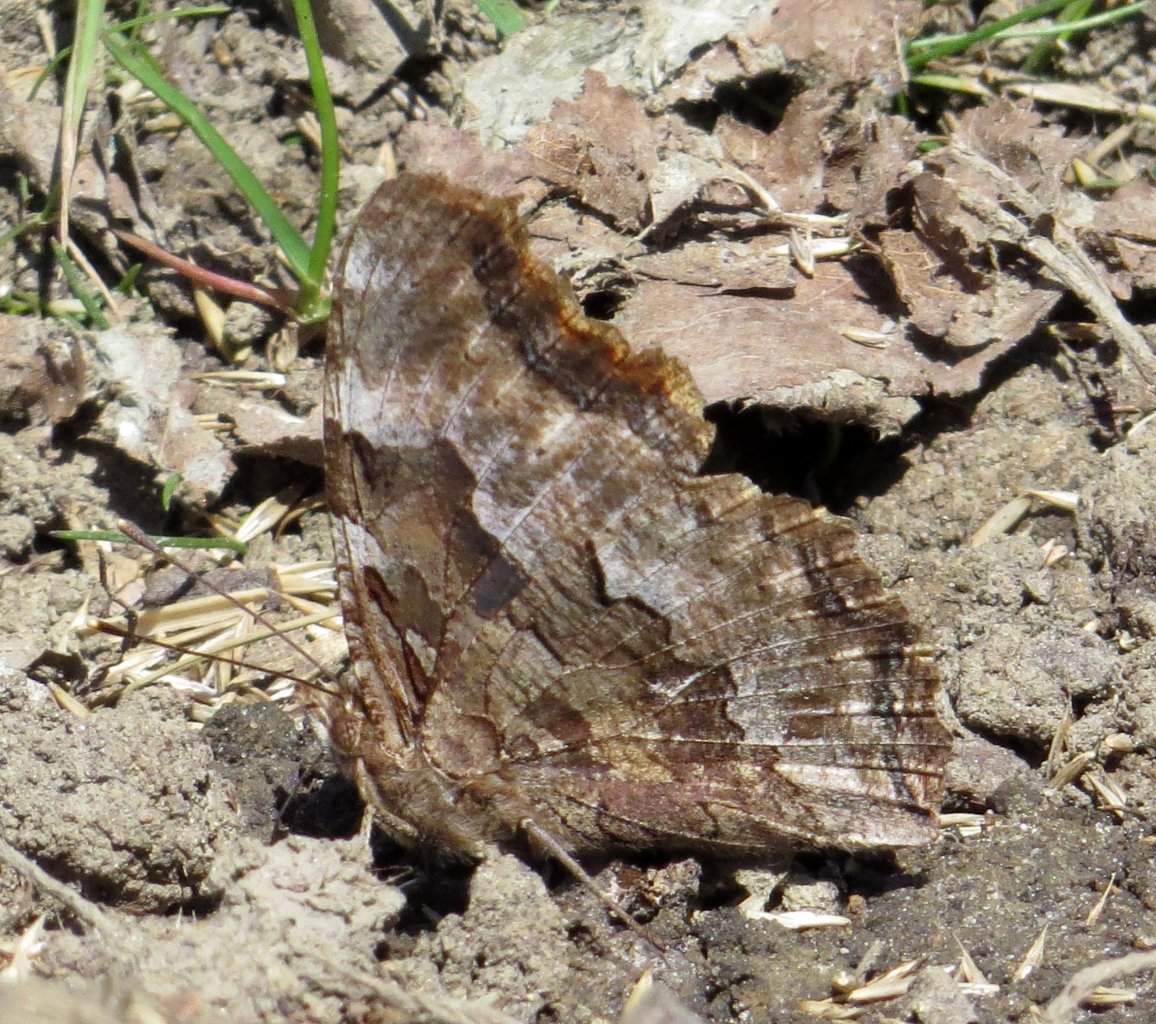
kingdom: Animalia
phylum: Arthropoda
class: Insecta
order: Lepidoptera
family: Nymphalidae
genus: Polygonia
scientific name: Polygonia vaualbum
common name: Compton Tortoiseshell
